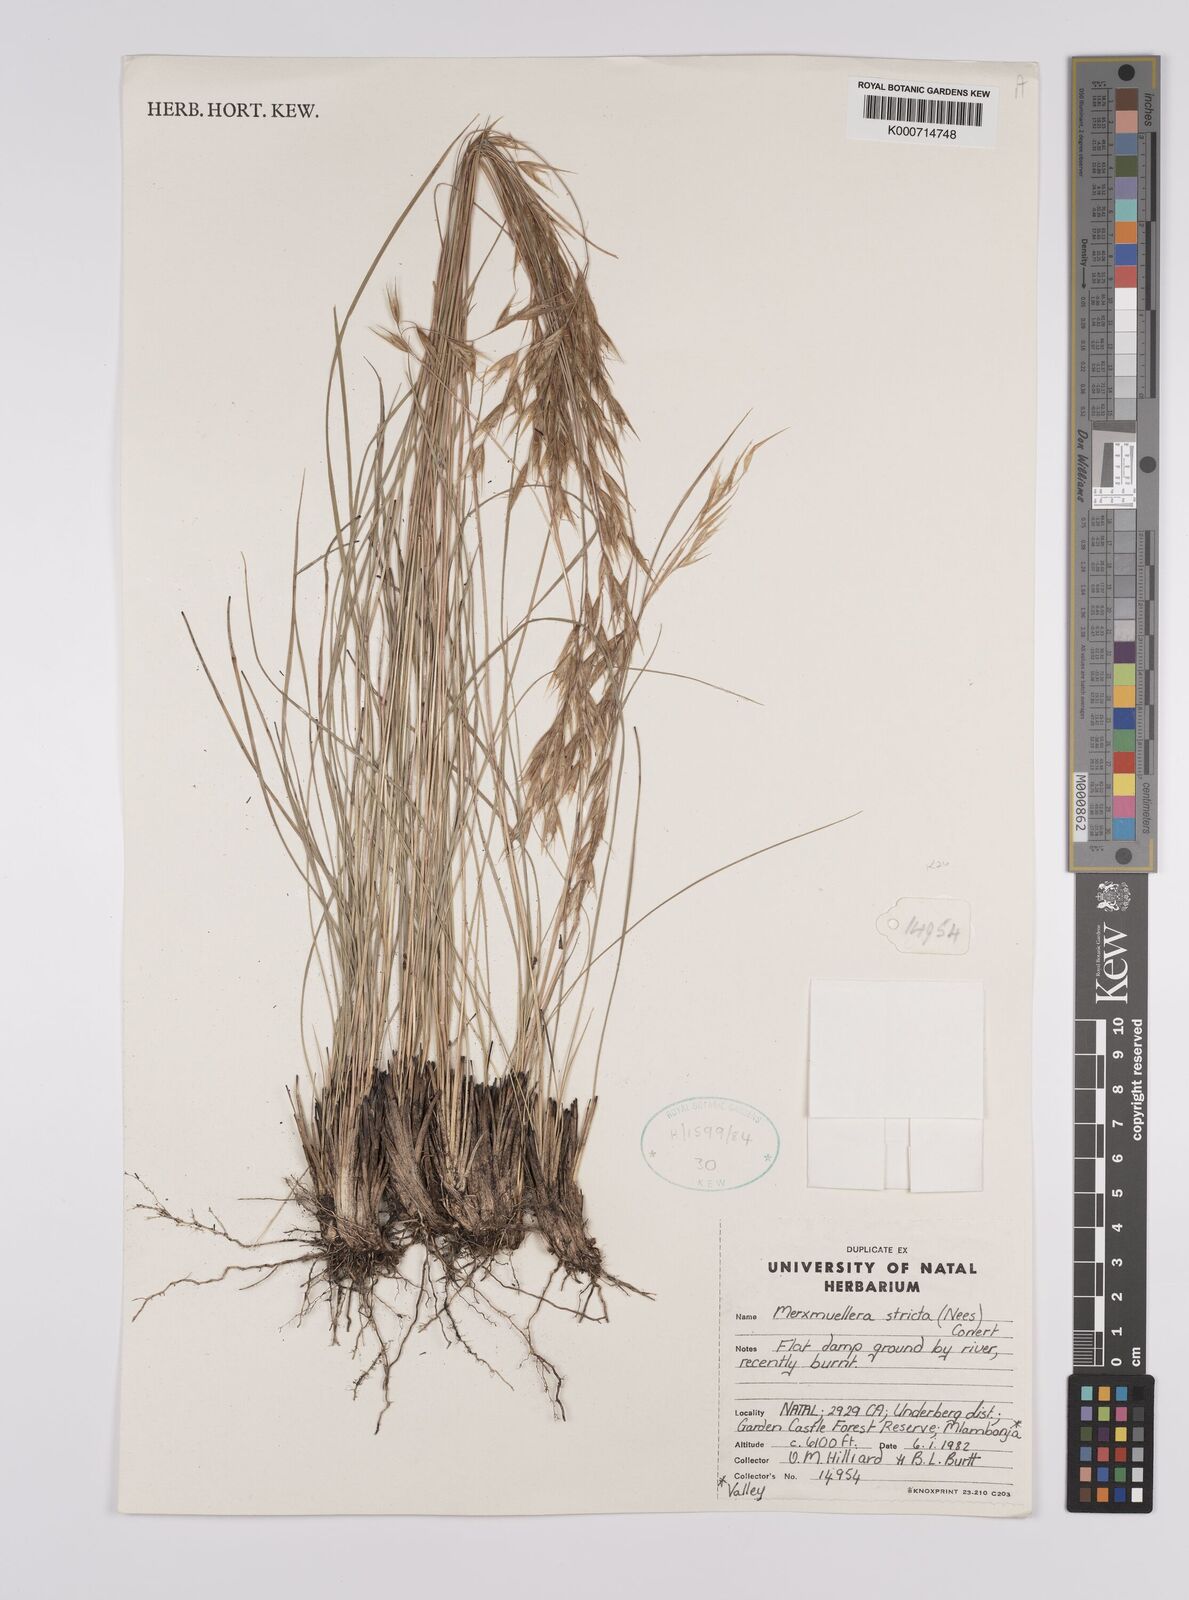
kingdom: Plantae
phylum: Tracheophyta
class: Liliopsida
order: Poales
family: Poaceae
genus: Rytidosperma
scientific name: Rytidosperma
